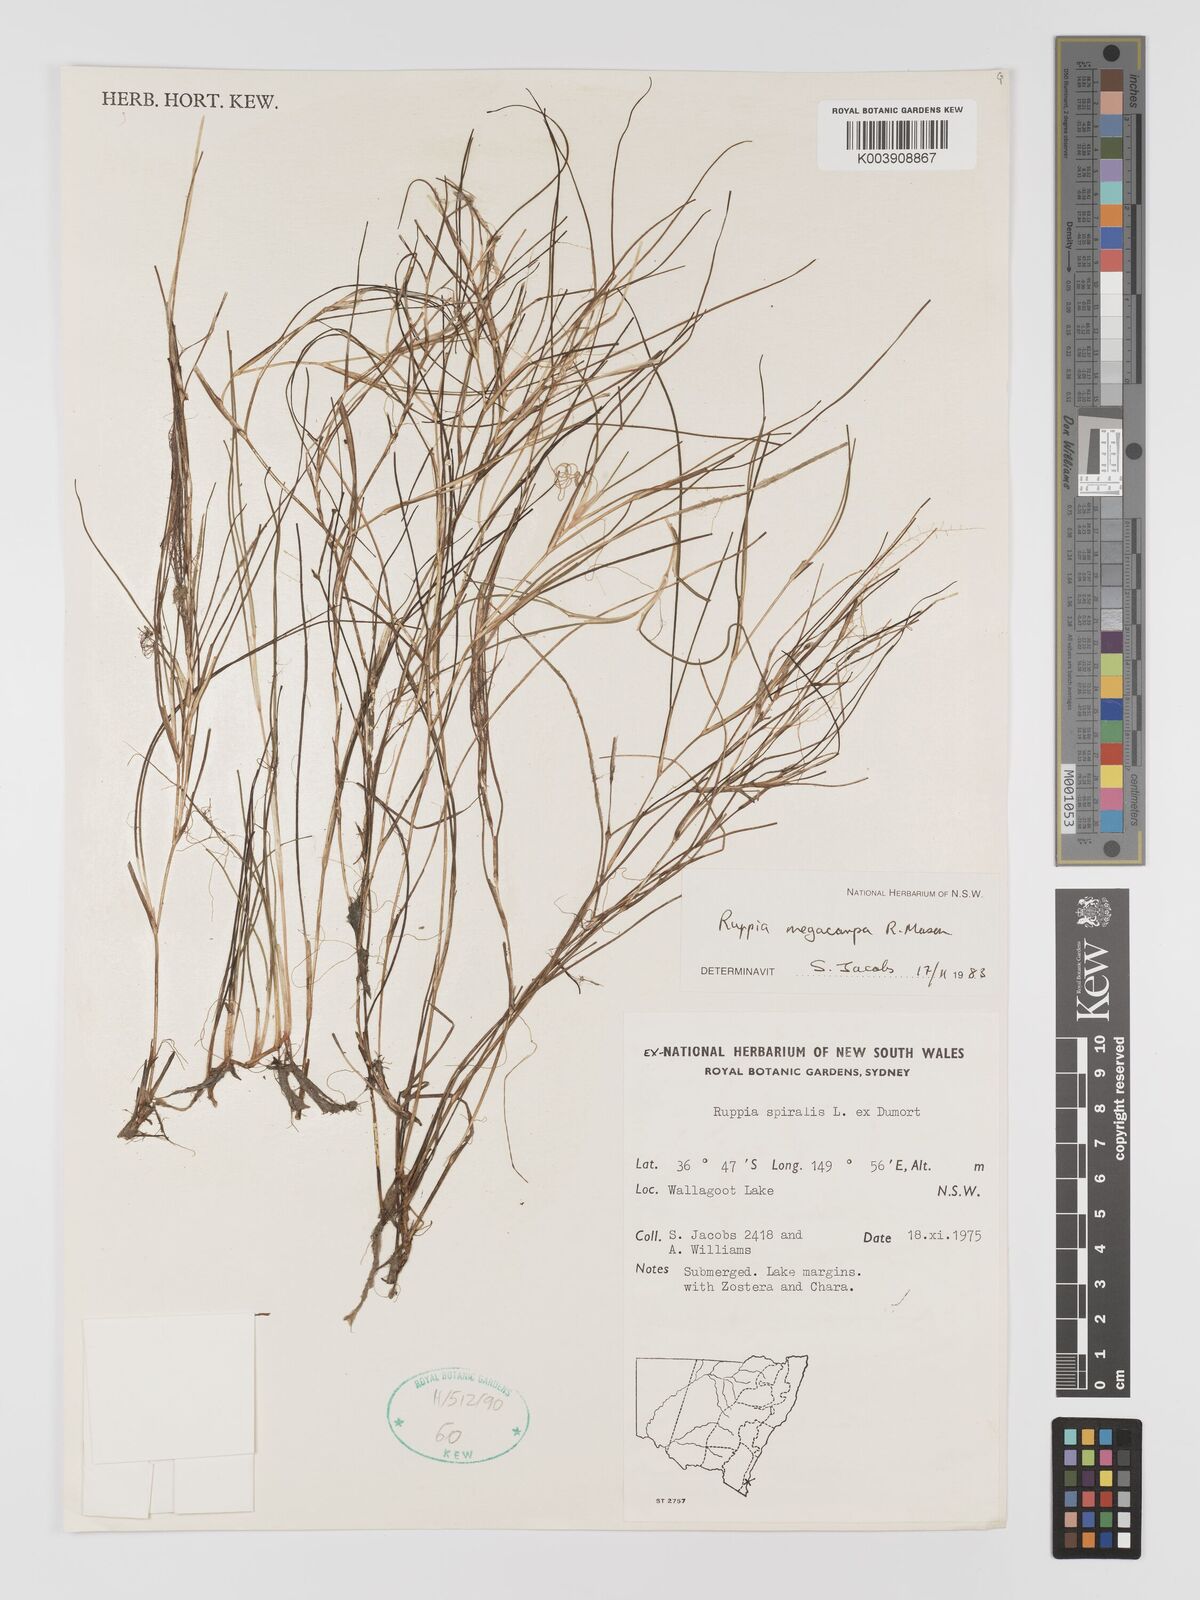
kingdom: Plantae
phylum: Tracheophyta
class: Liliopsida
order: Alismatales
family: Ruppiaceae
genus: Ruppia
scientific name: Ruppia megacarpa
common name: Large-fruit seatassel
